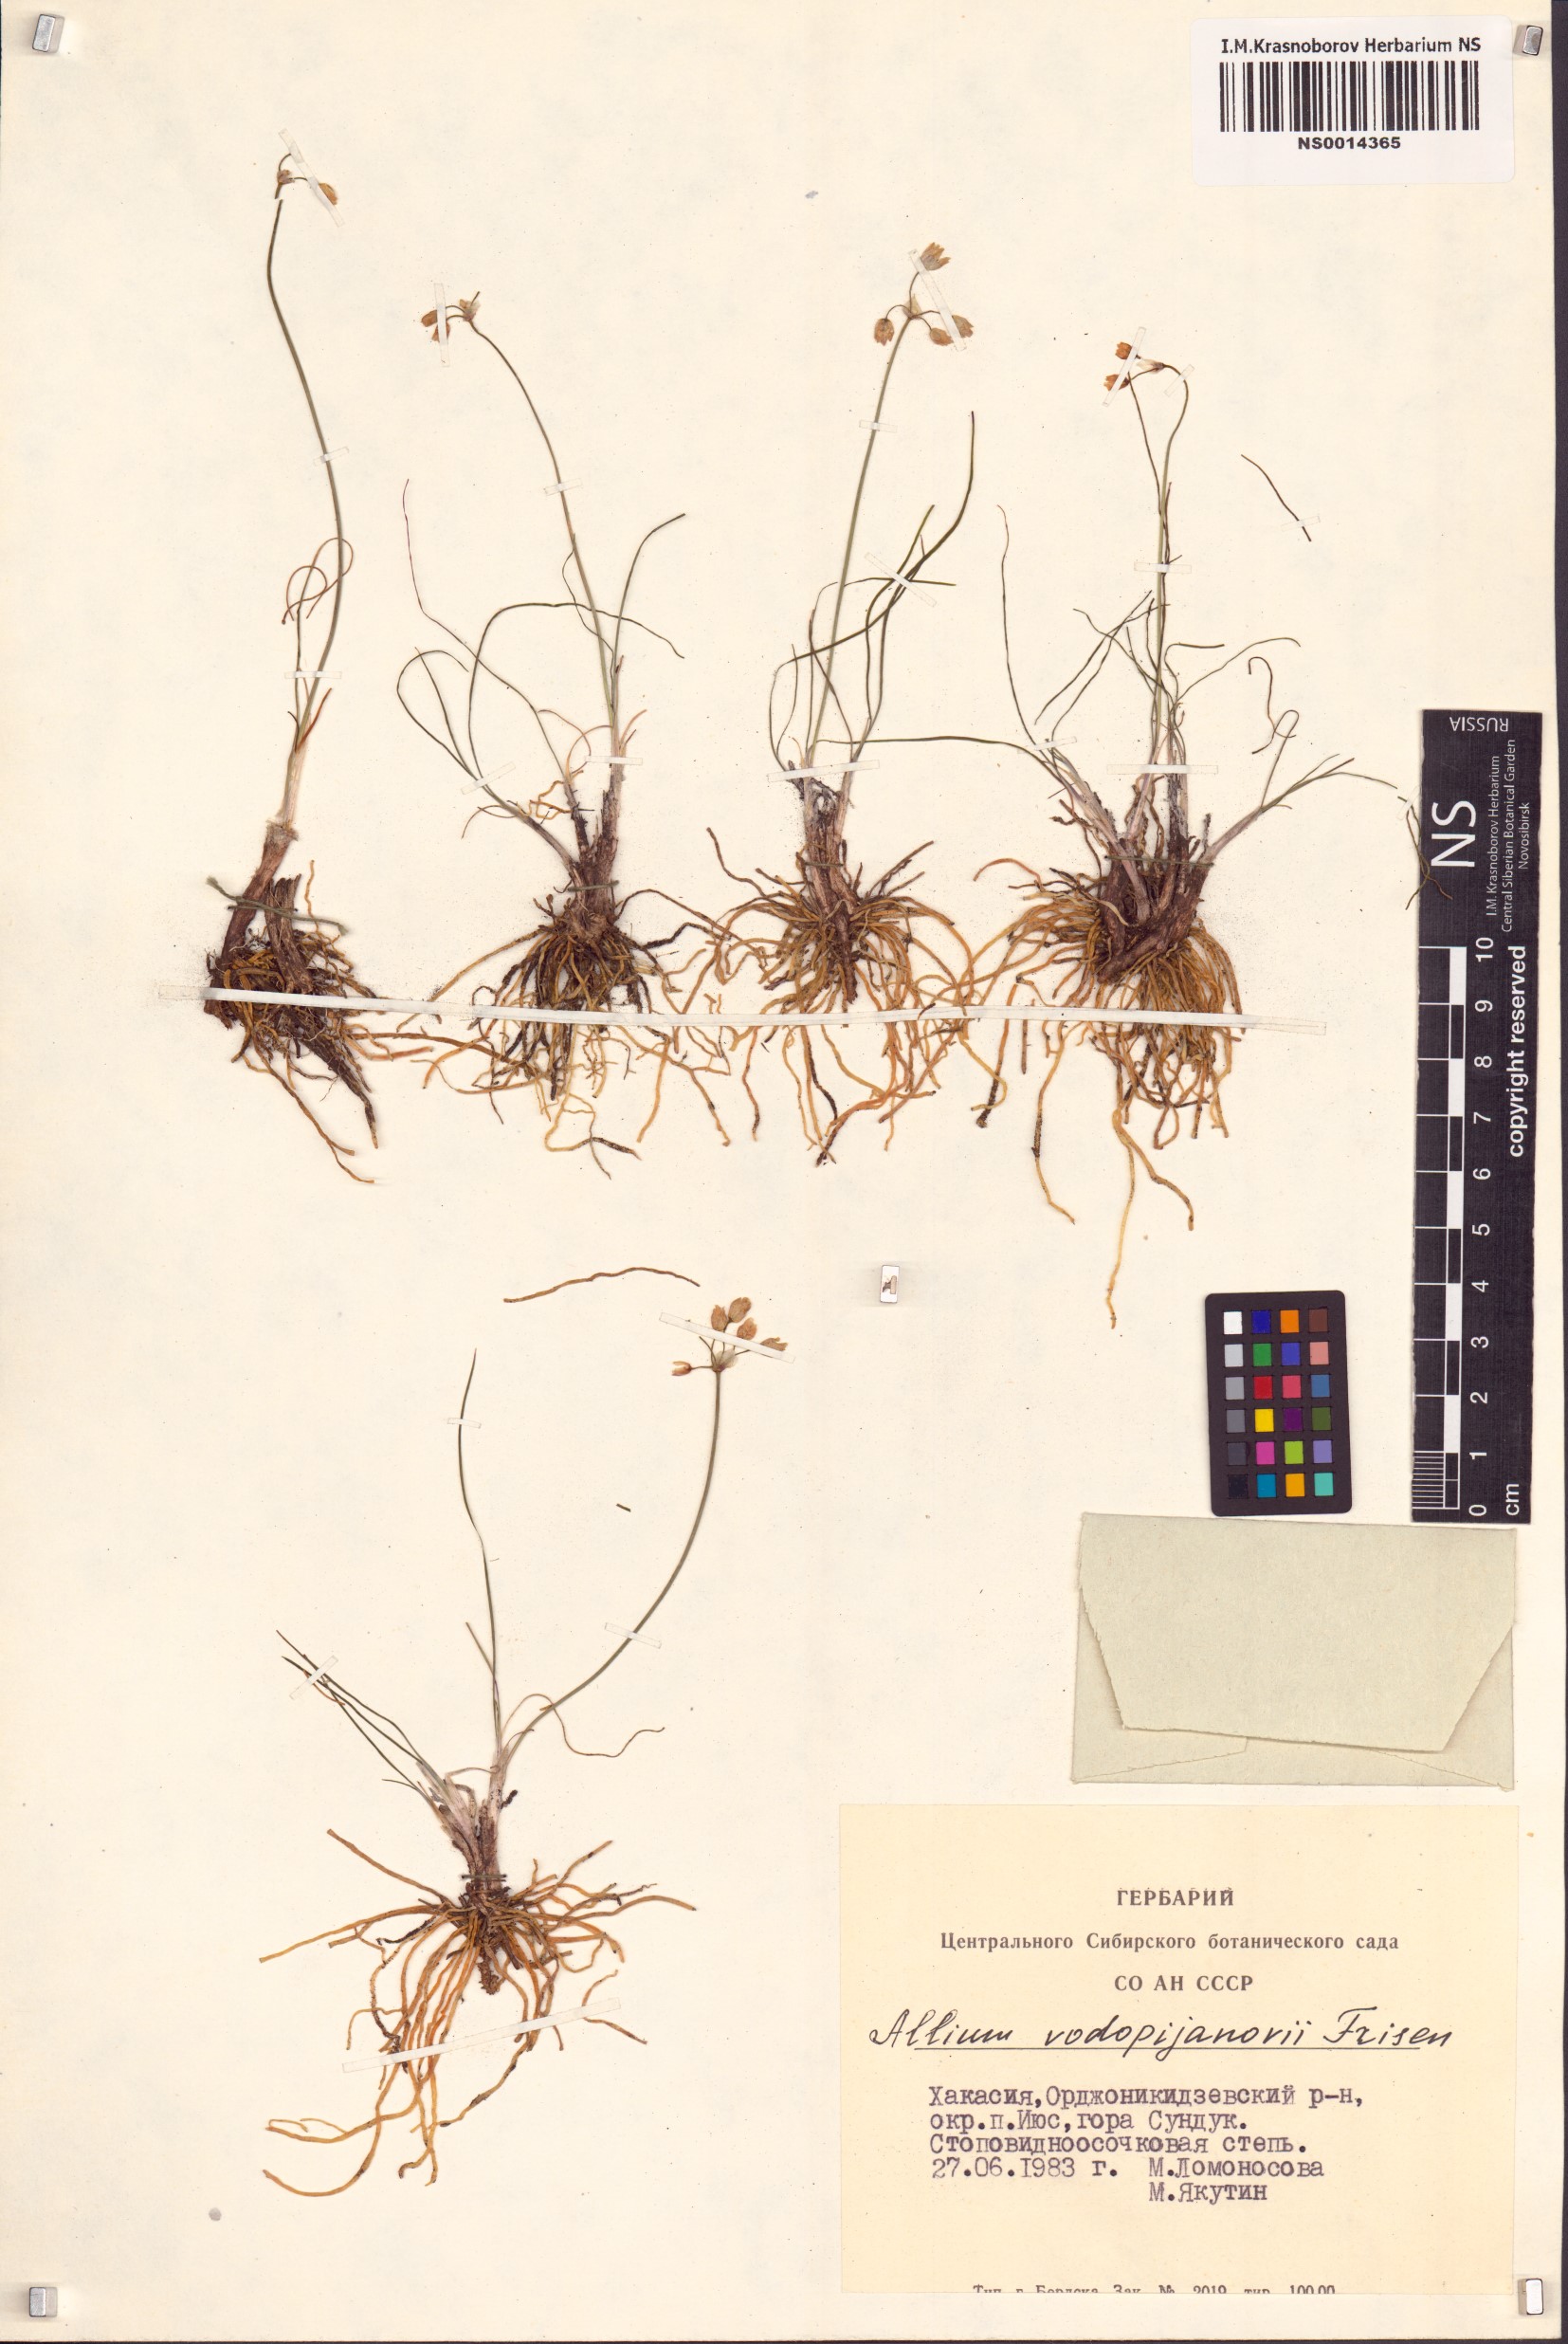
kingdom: Plantae
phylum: Tracheophyta
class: Liliopsida
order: Asparagales
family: Amaryllidaceae
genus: Allium
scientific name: Allium vodopjanovae
